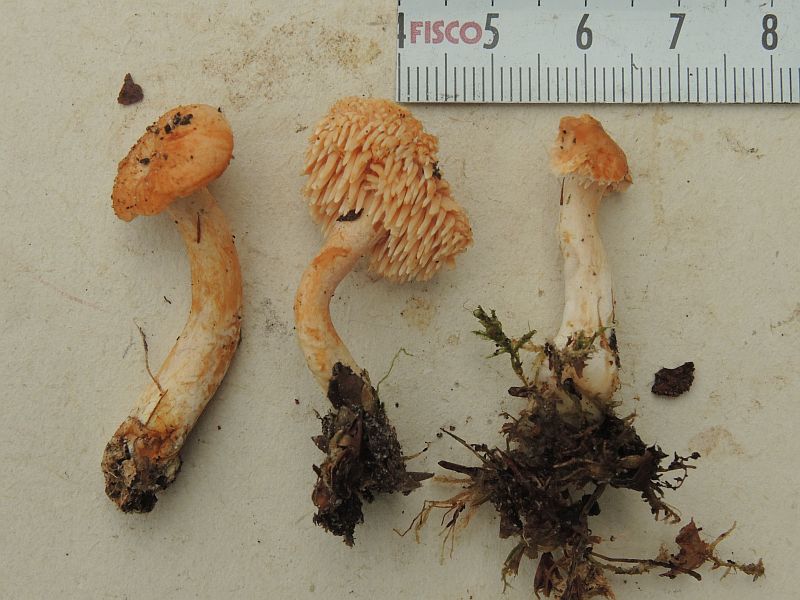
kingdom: Fungi
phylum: Basidiomycota
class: Agaricomycetes
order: Cantharellales
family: Hydnaceae
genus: Hydnum
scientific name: Hydnum rufescens
